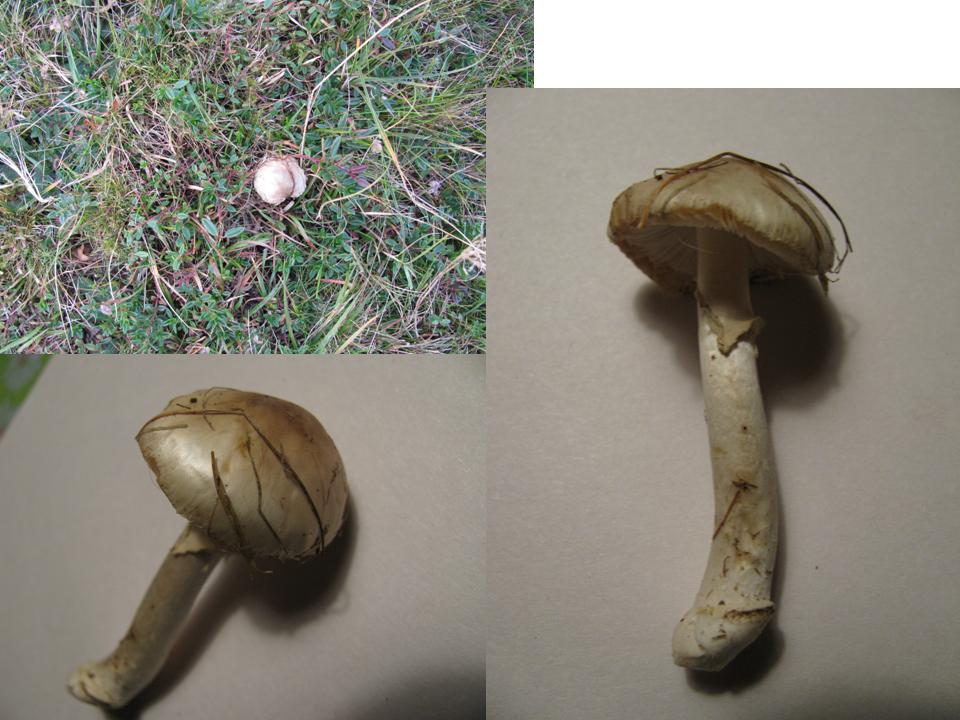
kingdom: Fungi
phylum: Basidiomycota
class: Agaricomycetes
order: Agaricales
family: Amanitaceae
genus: Amanita
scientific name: Amanita
